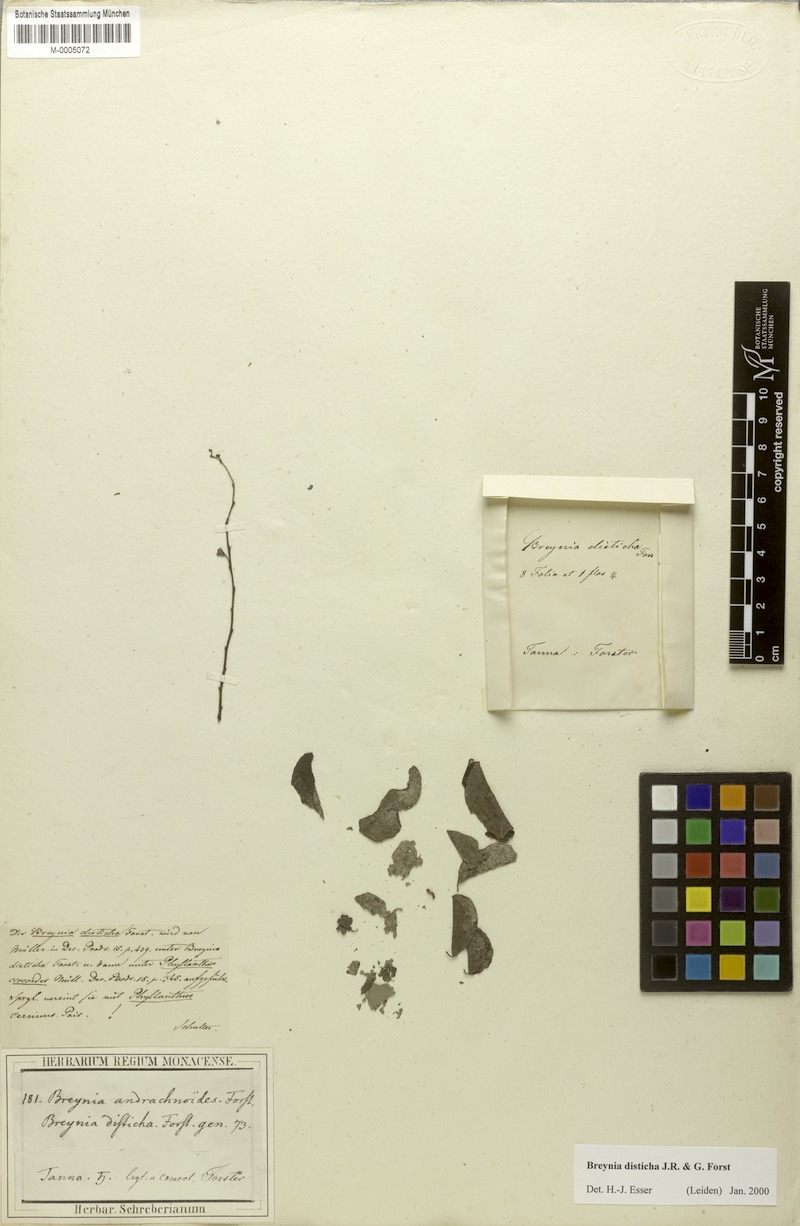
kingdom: Plantae
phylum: Tracheophyta
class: Magnoliopsida
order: Malpighiales
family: Phyllanthaceae
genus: Breynia
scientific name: Breynia disticha
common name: Snowbush
